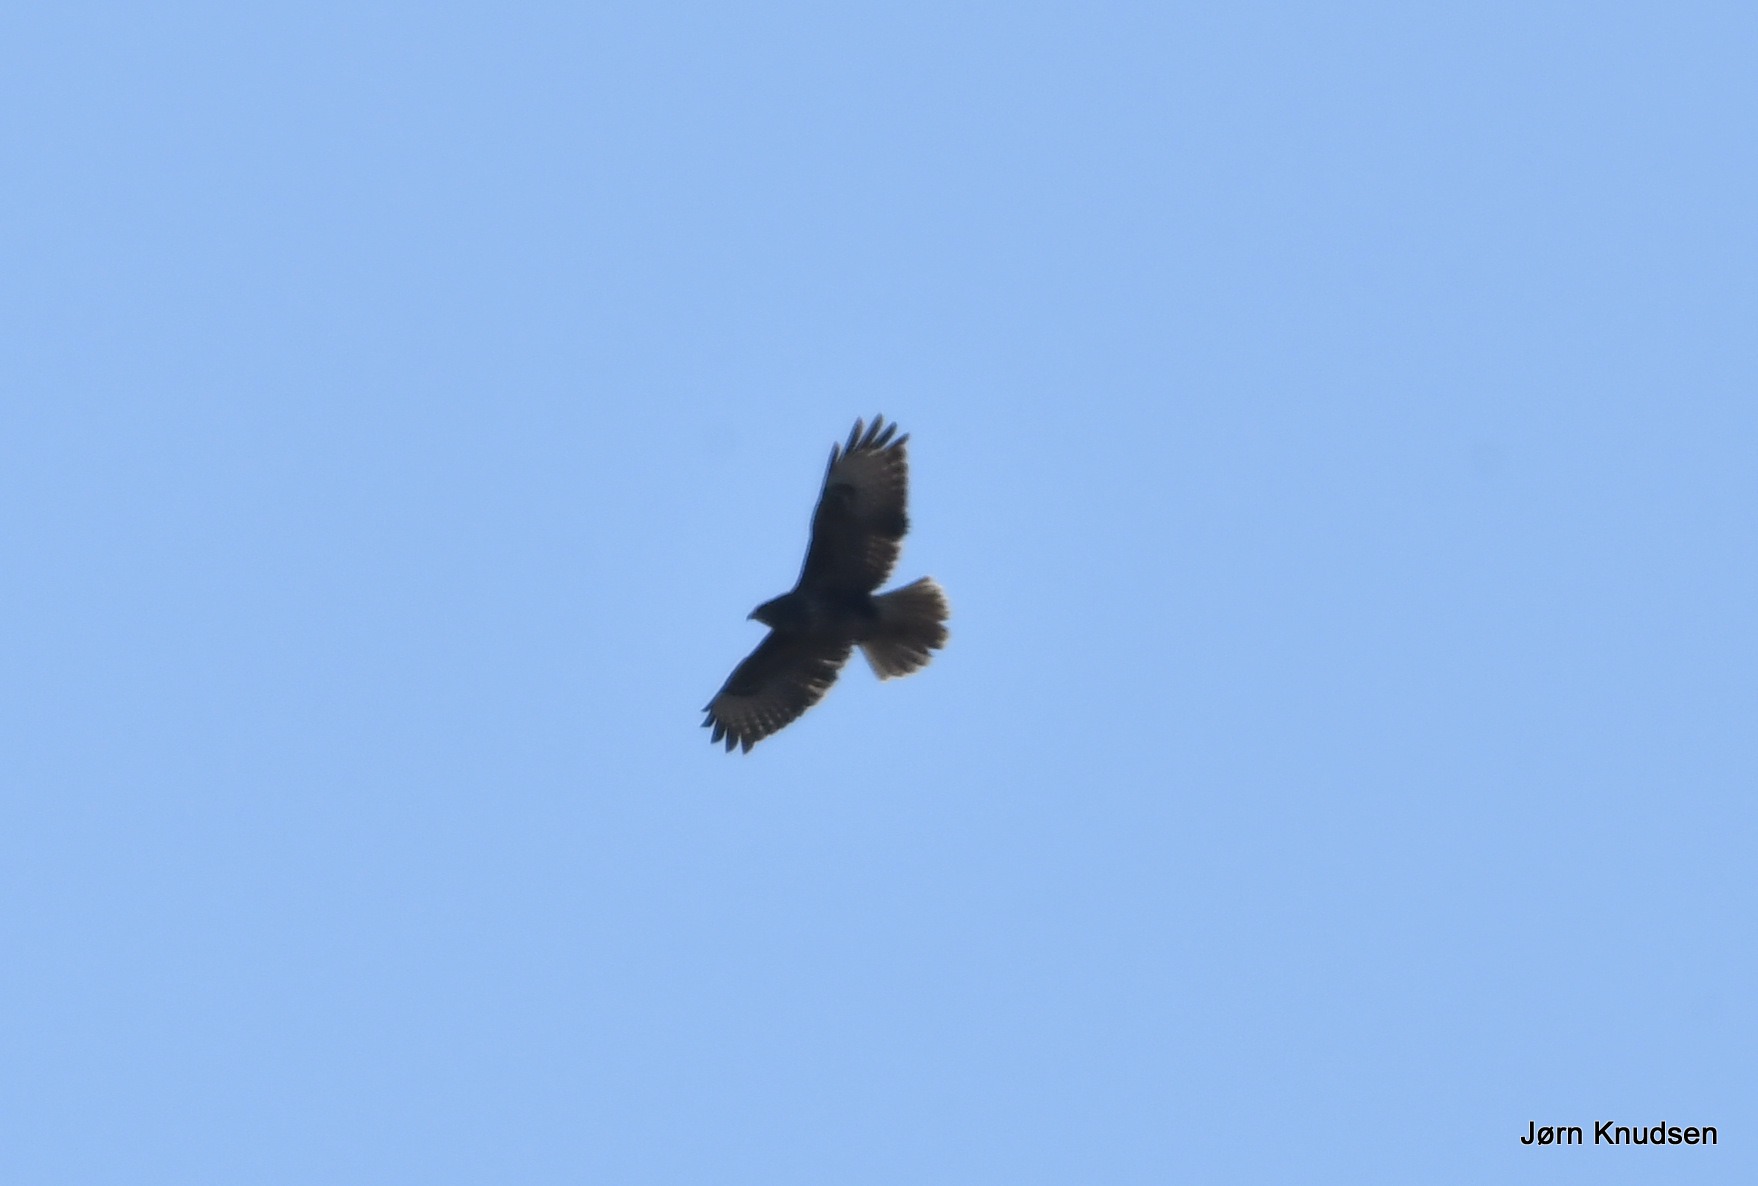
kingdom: Animalia
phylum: Chordata
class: Aves
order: Accipitriformes
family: Accipitridae
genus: Buteo
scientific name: Buteo buteo
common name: Musvåge
